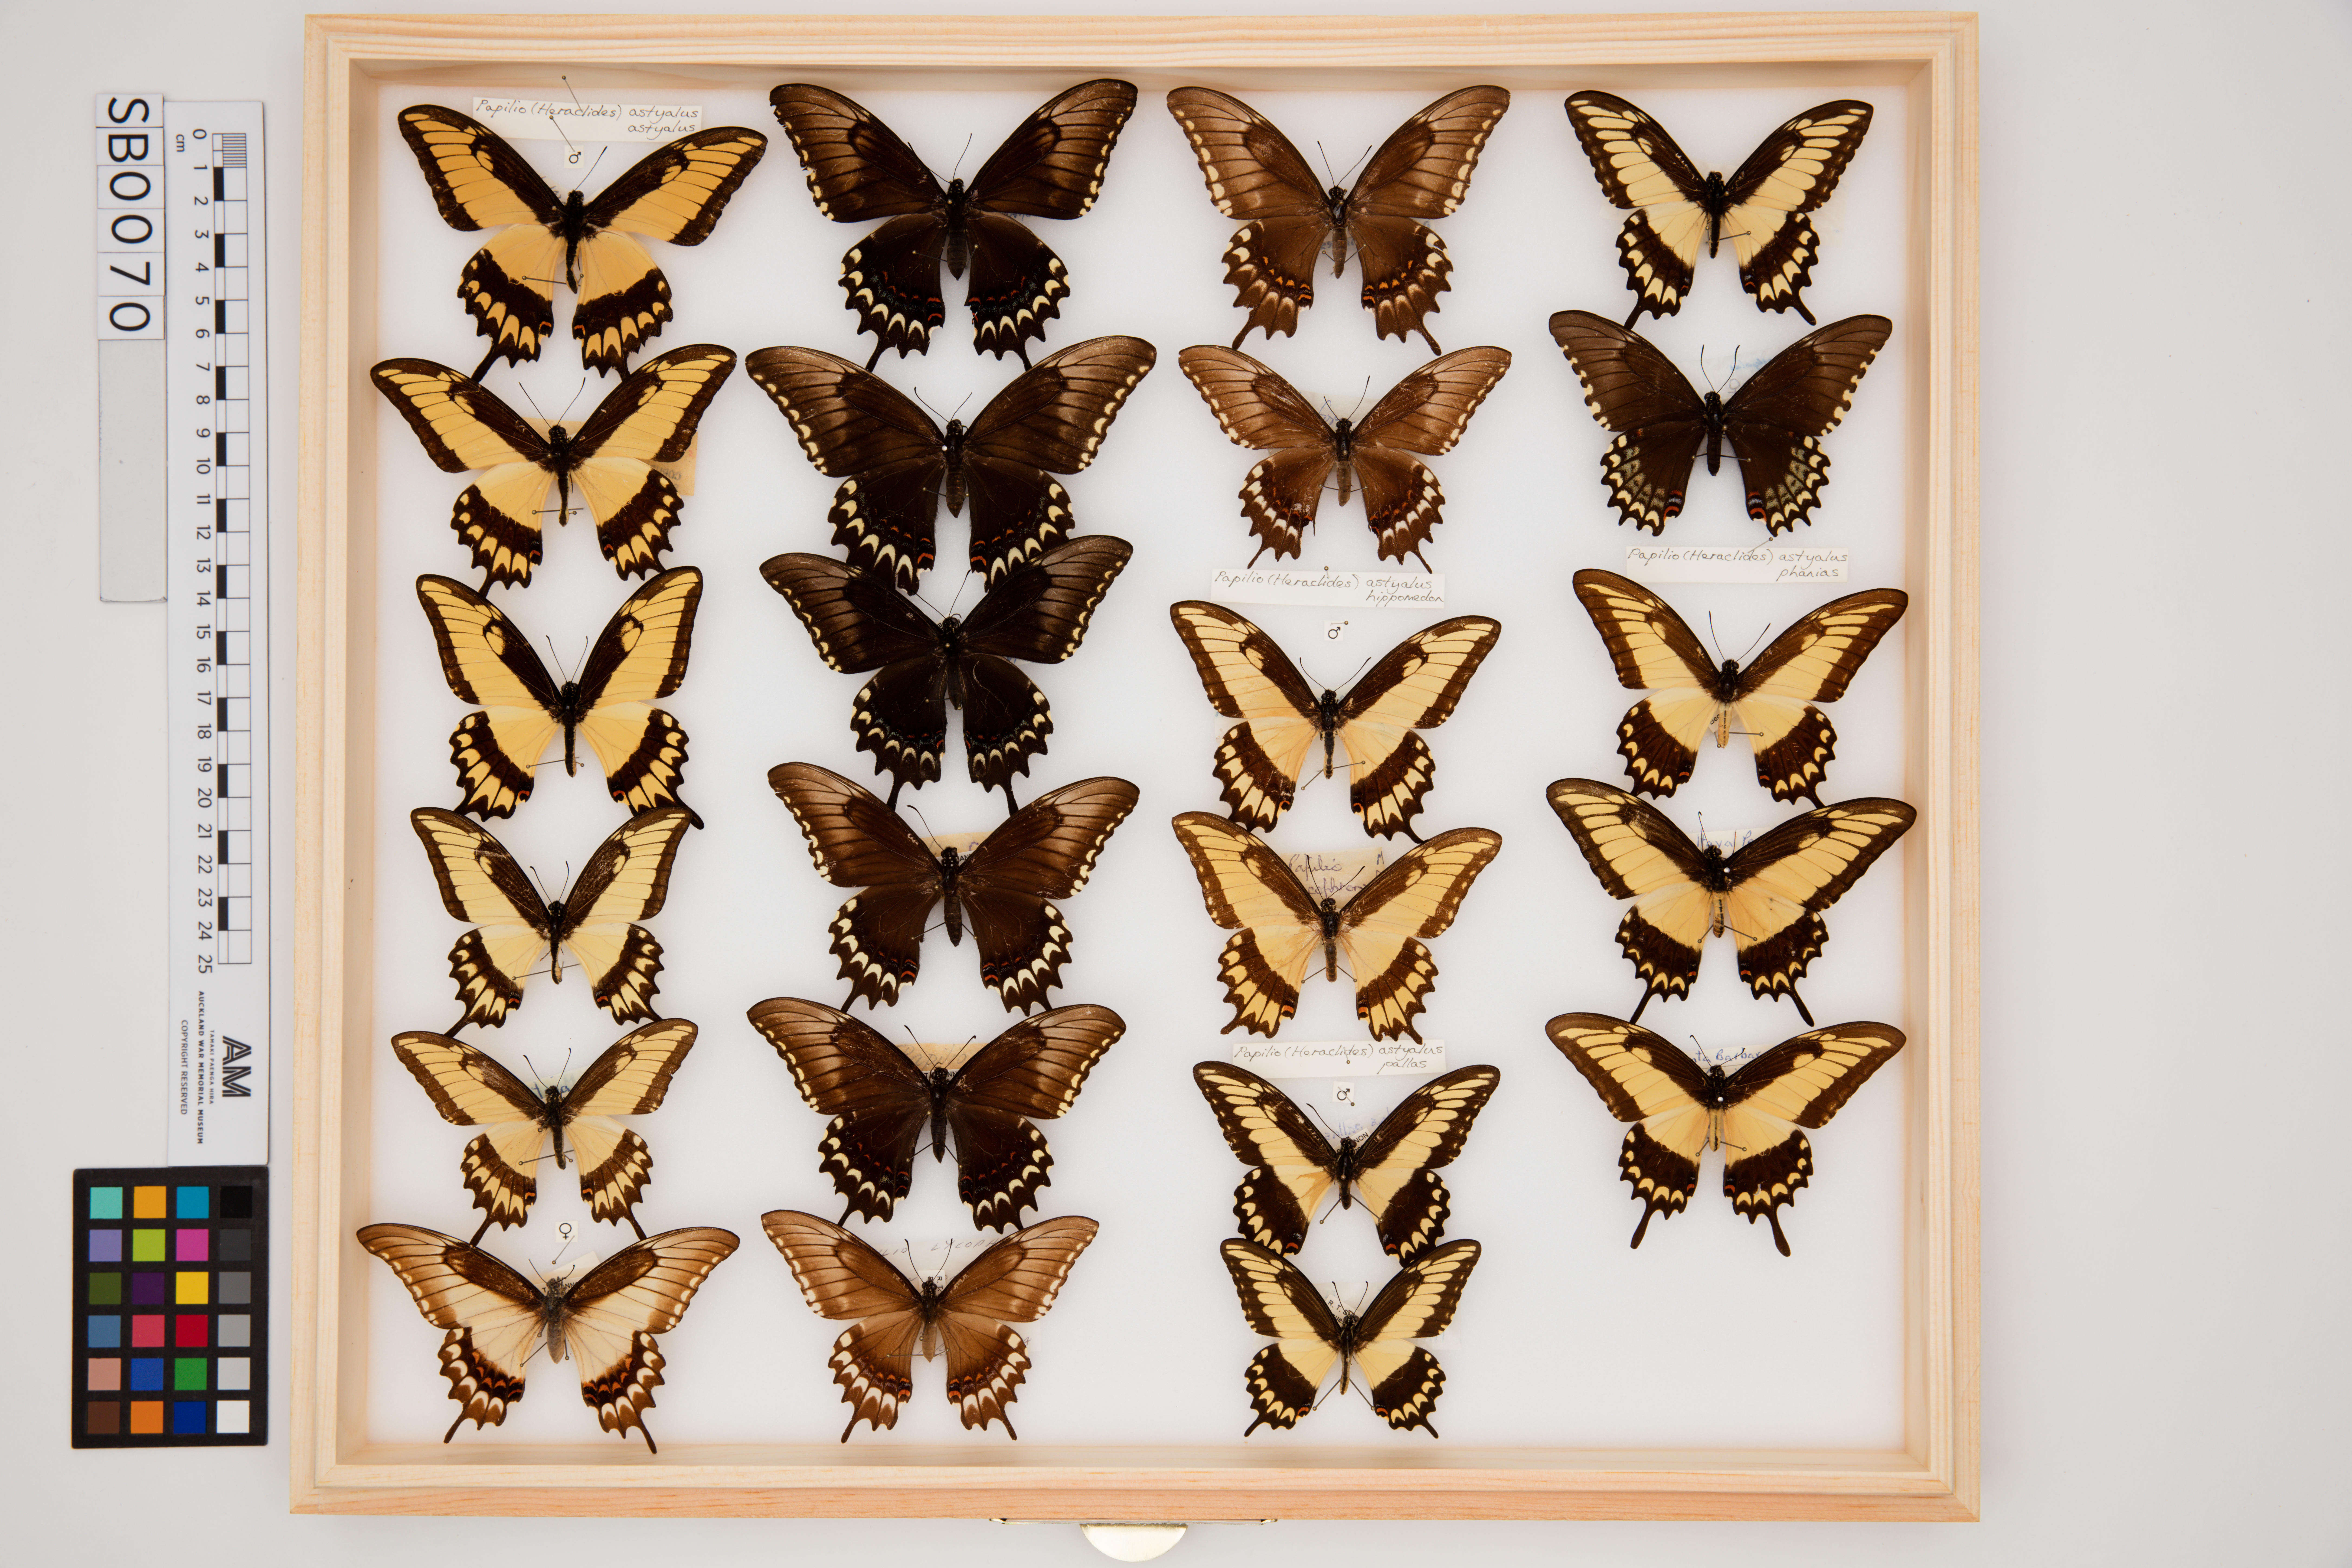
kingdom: Animalia
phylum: Arthropoda
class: Insecta
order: Lepidoptera
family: Papilionidae
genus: Papilio
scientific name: Papilio astyalus
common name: Astyalus swallowtail
